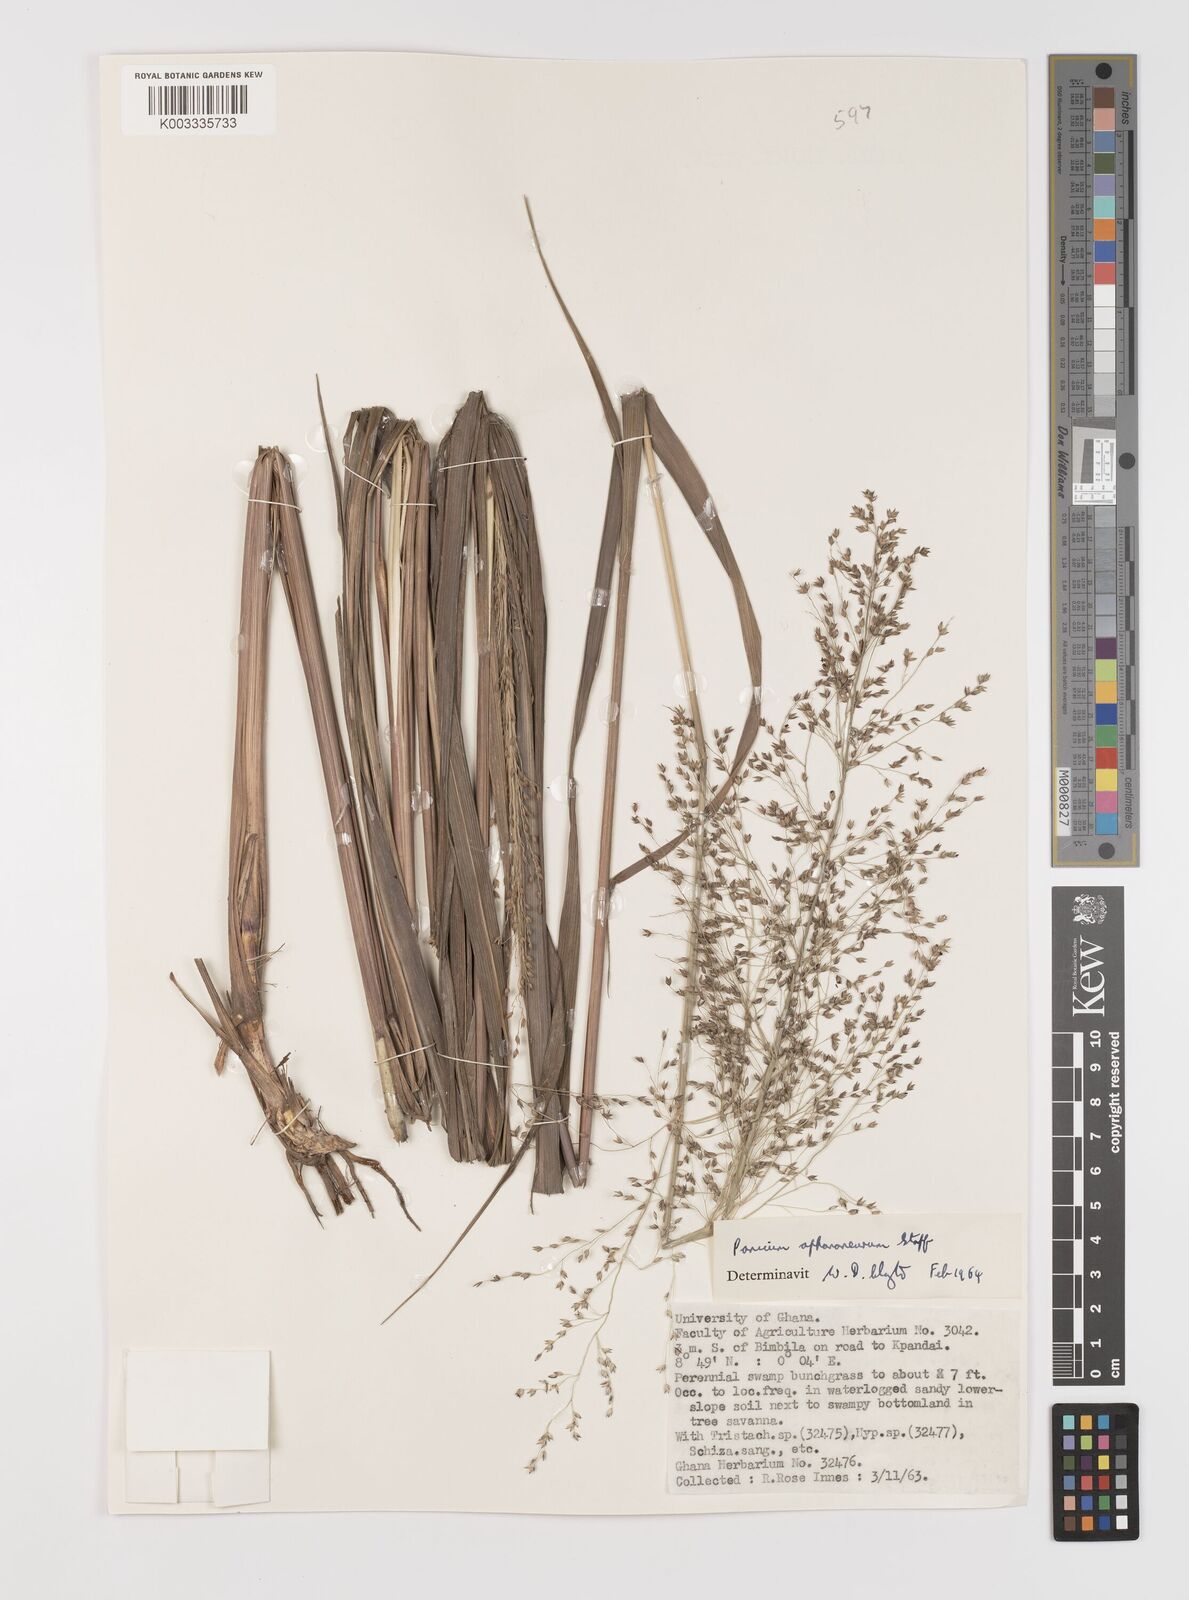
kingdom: Plantae
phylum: Tracheophyta
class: Liliopsida
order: Poales
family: Poaceae
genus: Panicum
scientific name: Panicum fluviicola
